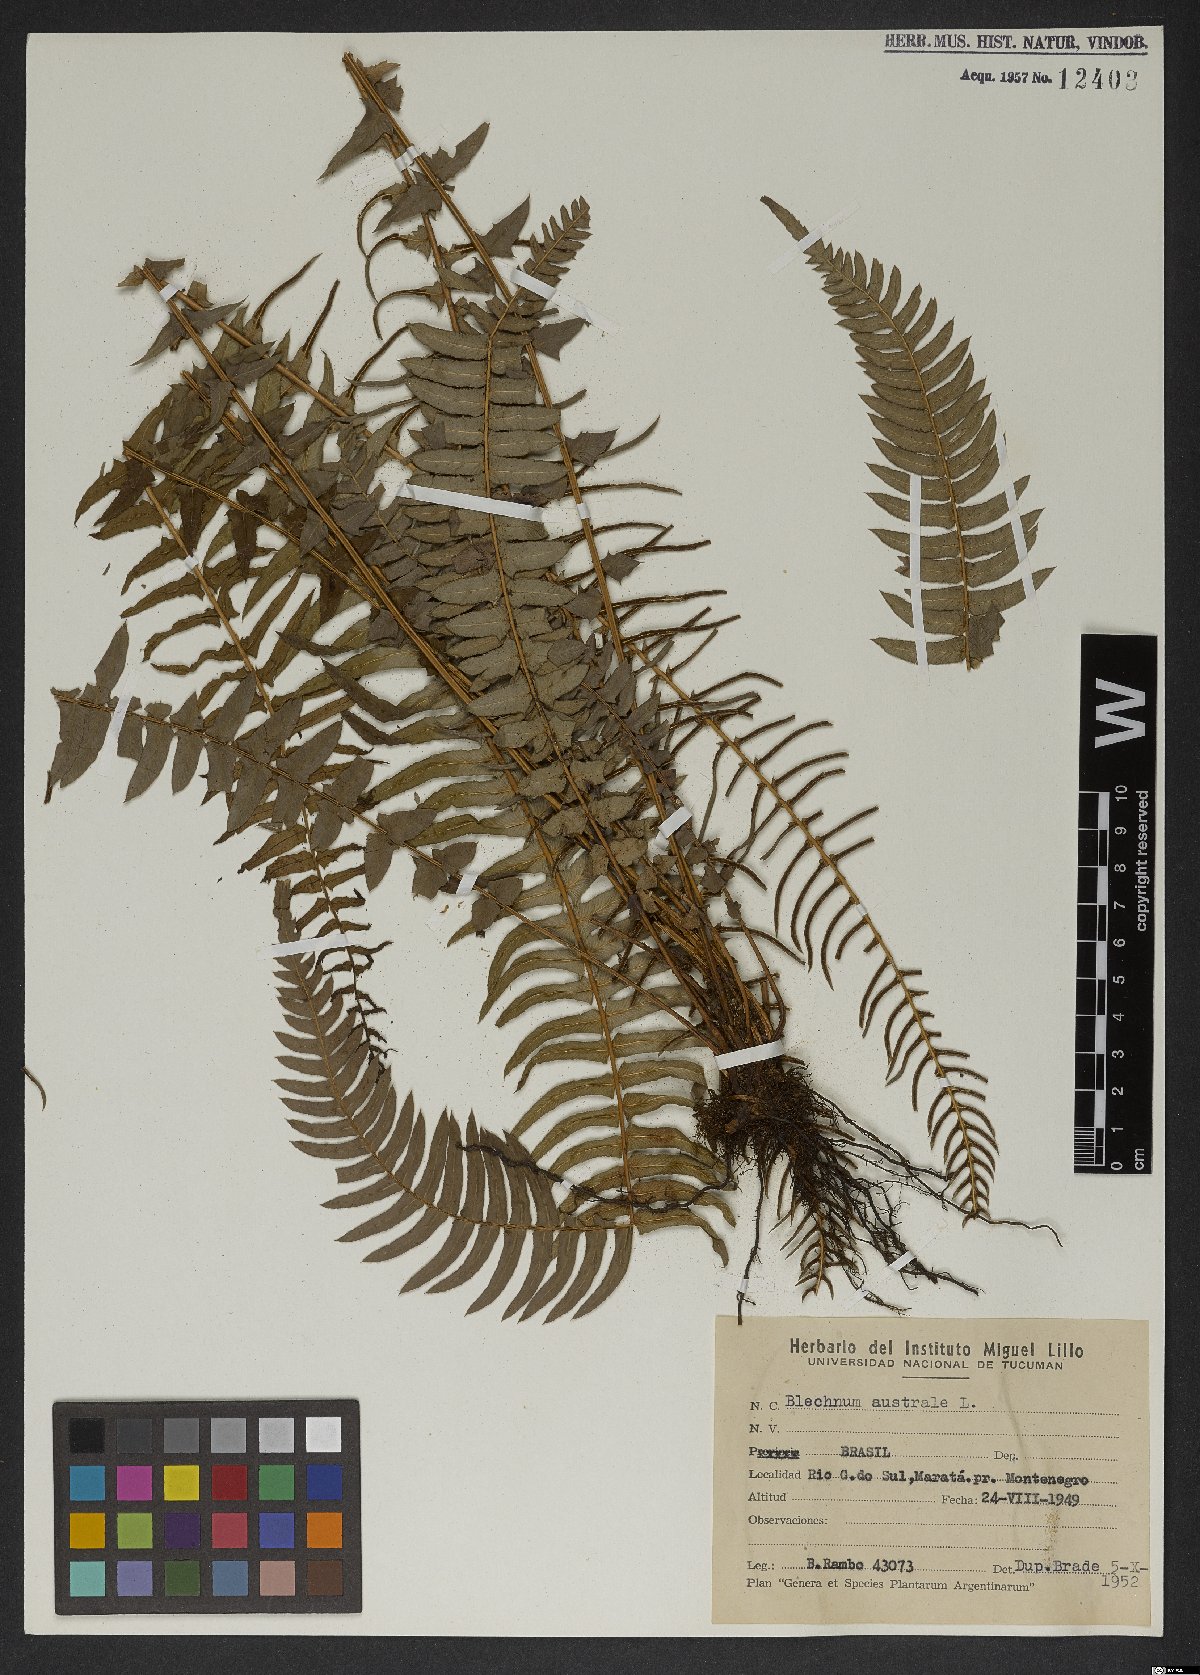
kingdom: Plantae
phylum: Tracheophyta
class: Polypodiopsida
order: Polypodiales
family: Blechnaceae
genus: Blechnum
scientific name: Blechnum australe
